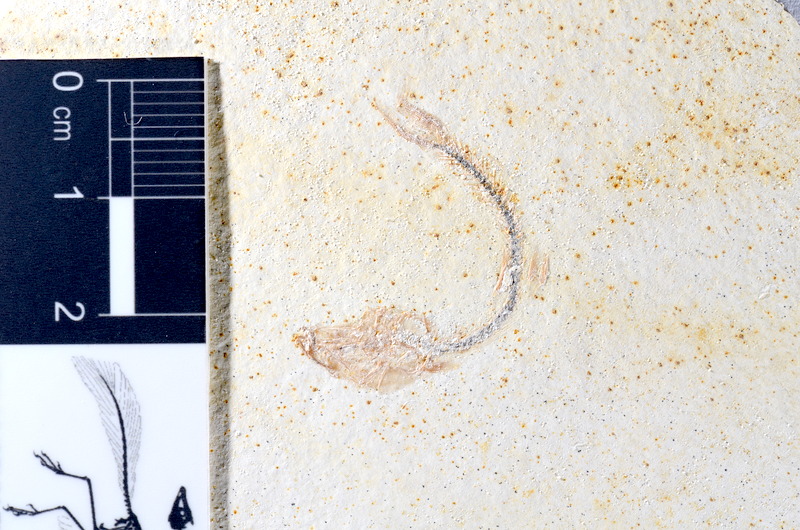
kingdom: Animalia
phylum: Chordata
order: Salmoniformes
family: Orthogonikleithridae
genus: Orthogonikleithrus
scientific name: Orthogonikleithrus hoelli
